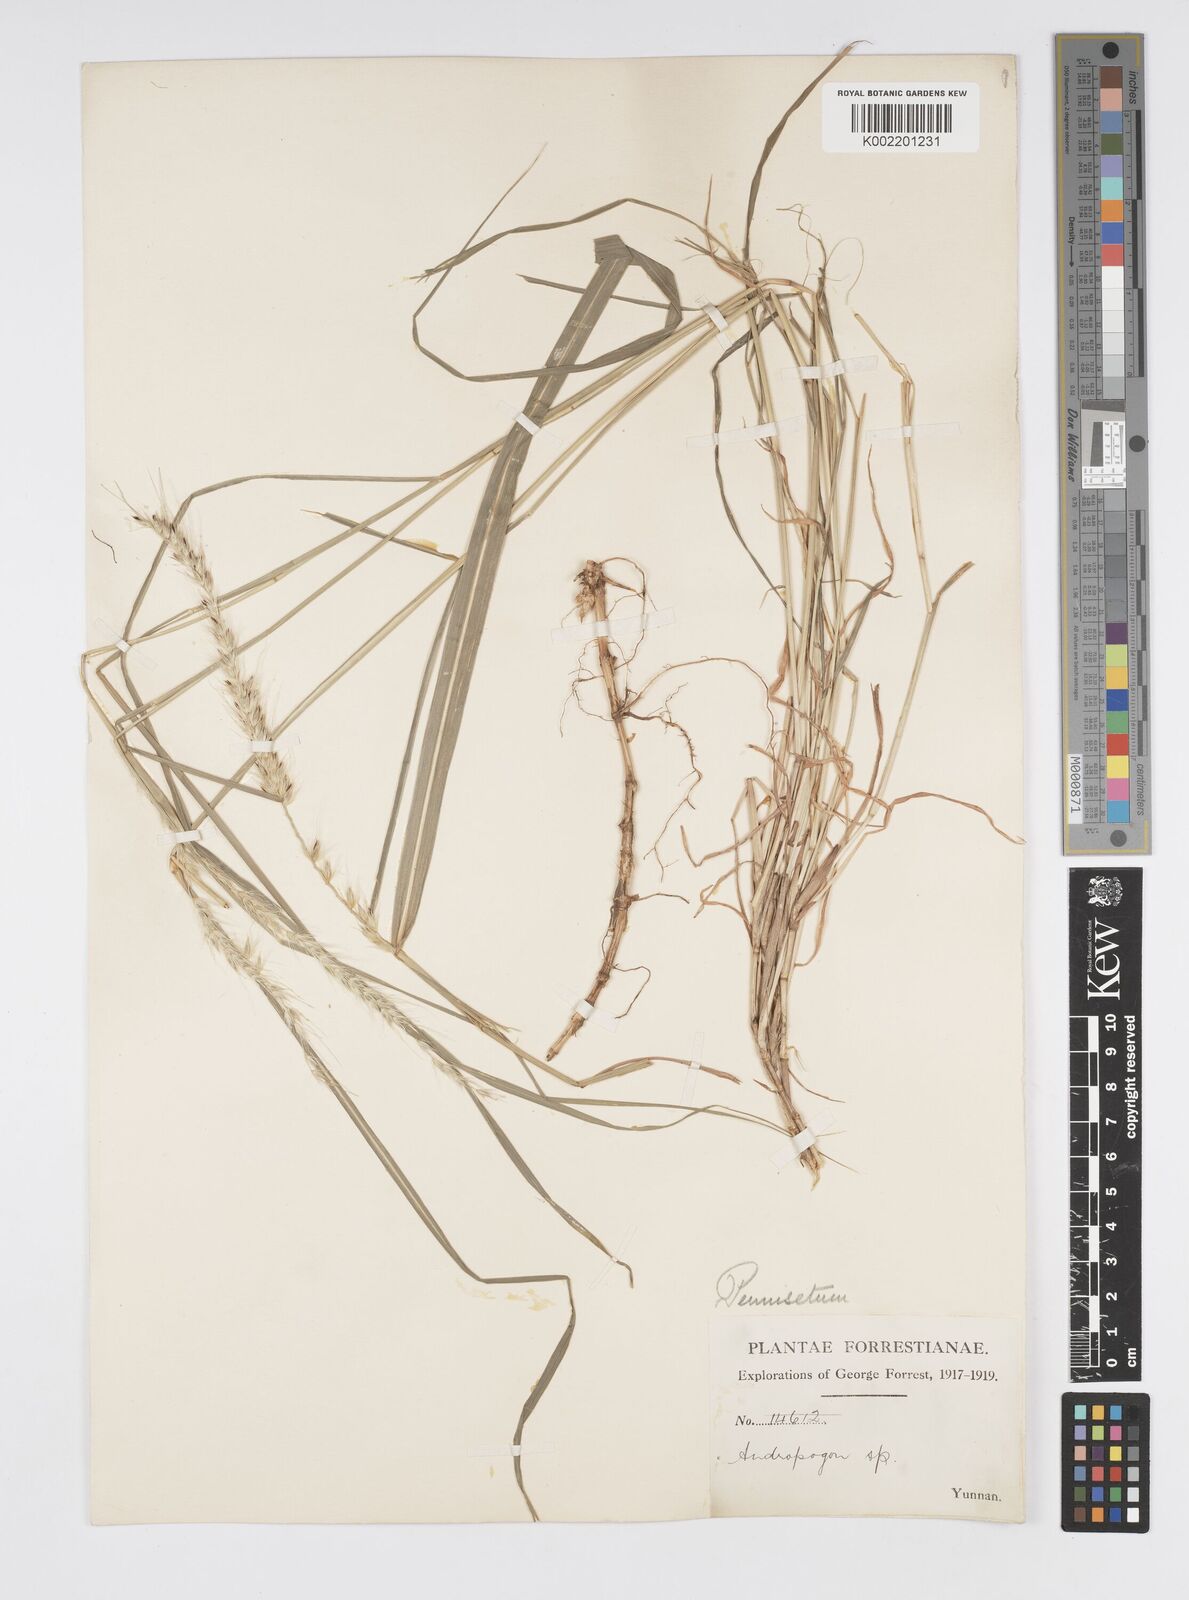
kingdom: Plantae
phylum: Tracheophyta
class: Liliopsida
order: Poales
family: Poaceae
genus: Cenchrus
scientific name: Cenchrus flaccidus
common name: Flaccid grass
